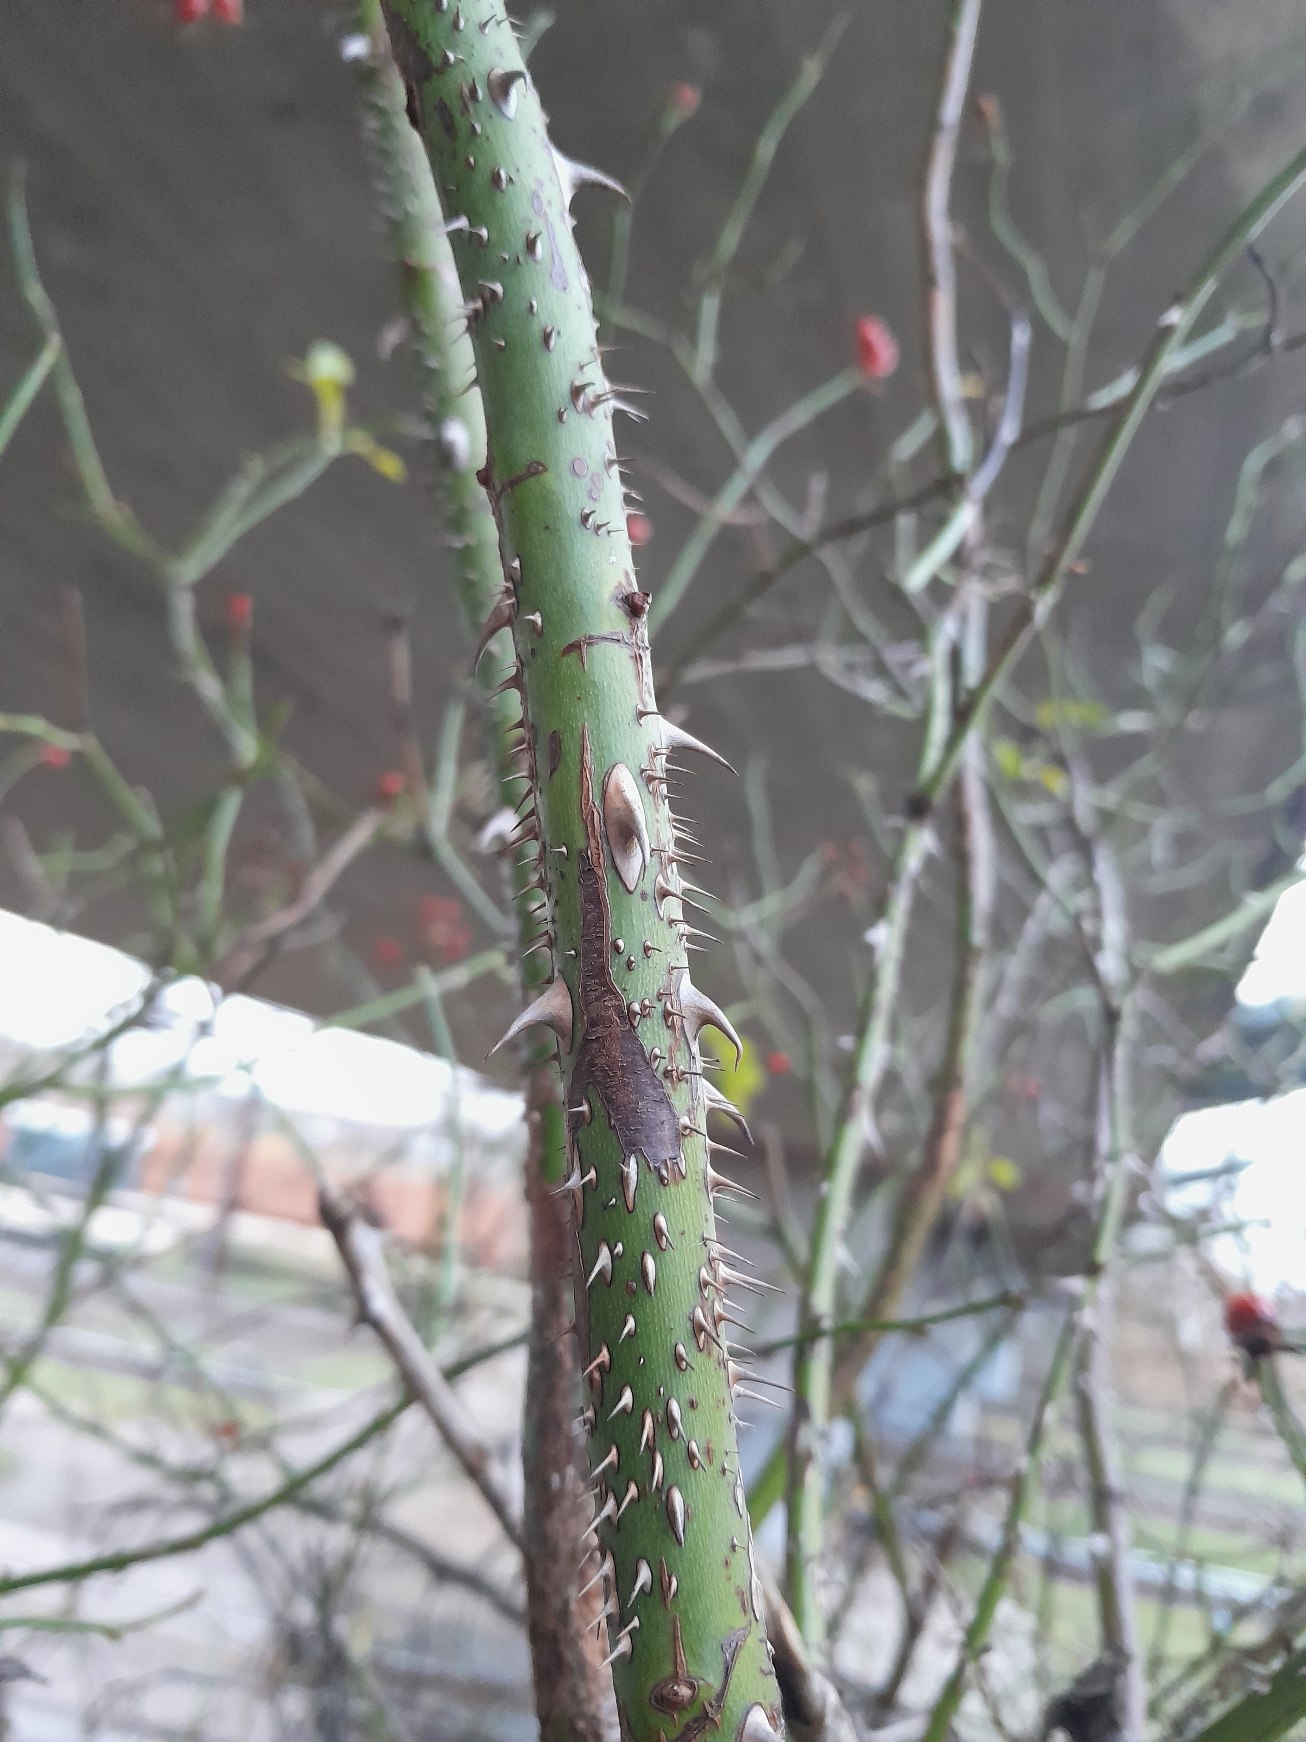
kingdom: Plantae
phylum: Tracheophyta
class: Magnoliopsida
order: Rosales
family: Rosaceae
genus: Rosa
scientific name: Rosa rubiginosa
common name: Æble-rose
